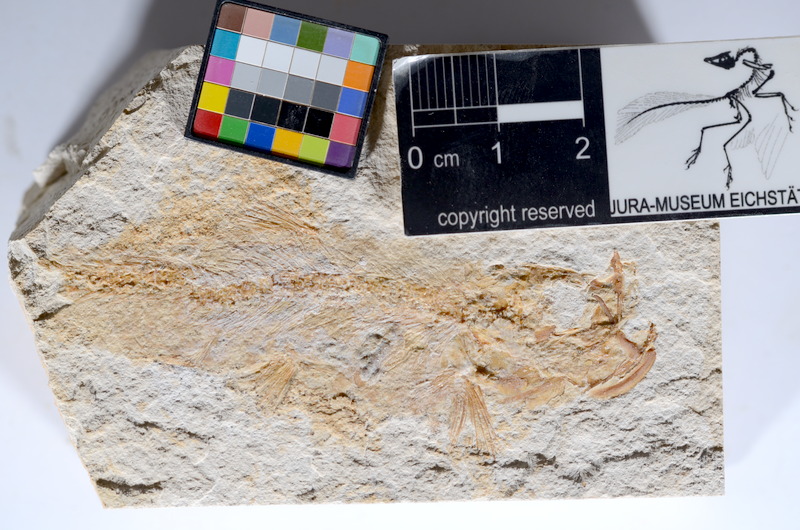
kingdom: Animalia
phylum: Chordata
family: Ascalaboidae
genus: Tharsis
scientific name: Tharsis dubius
